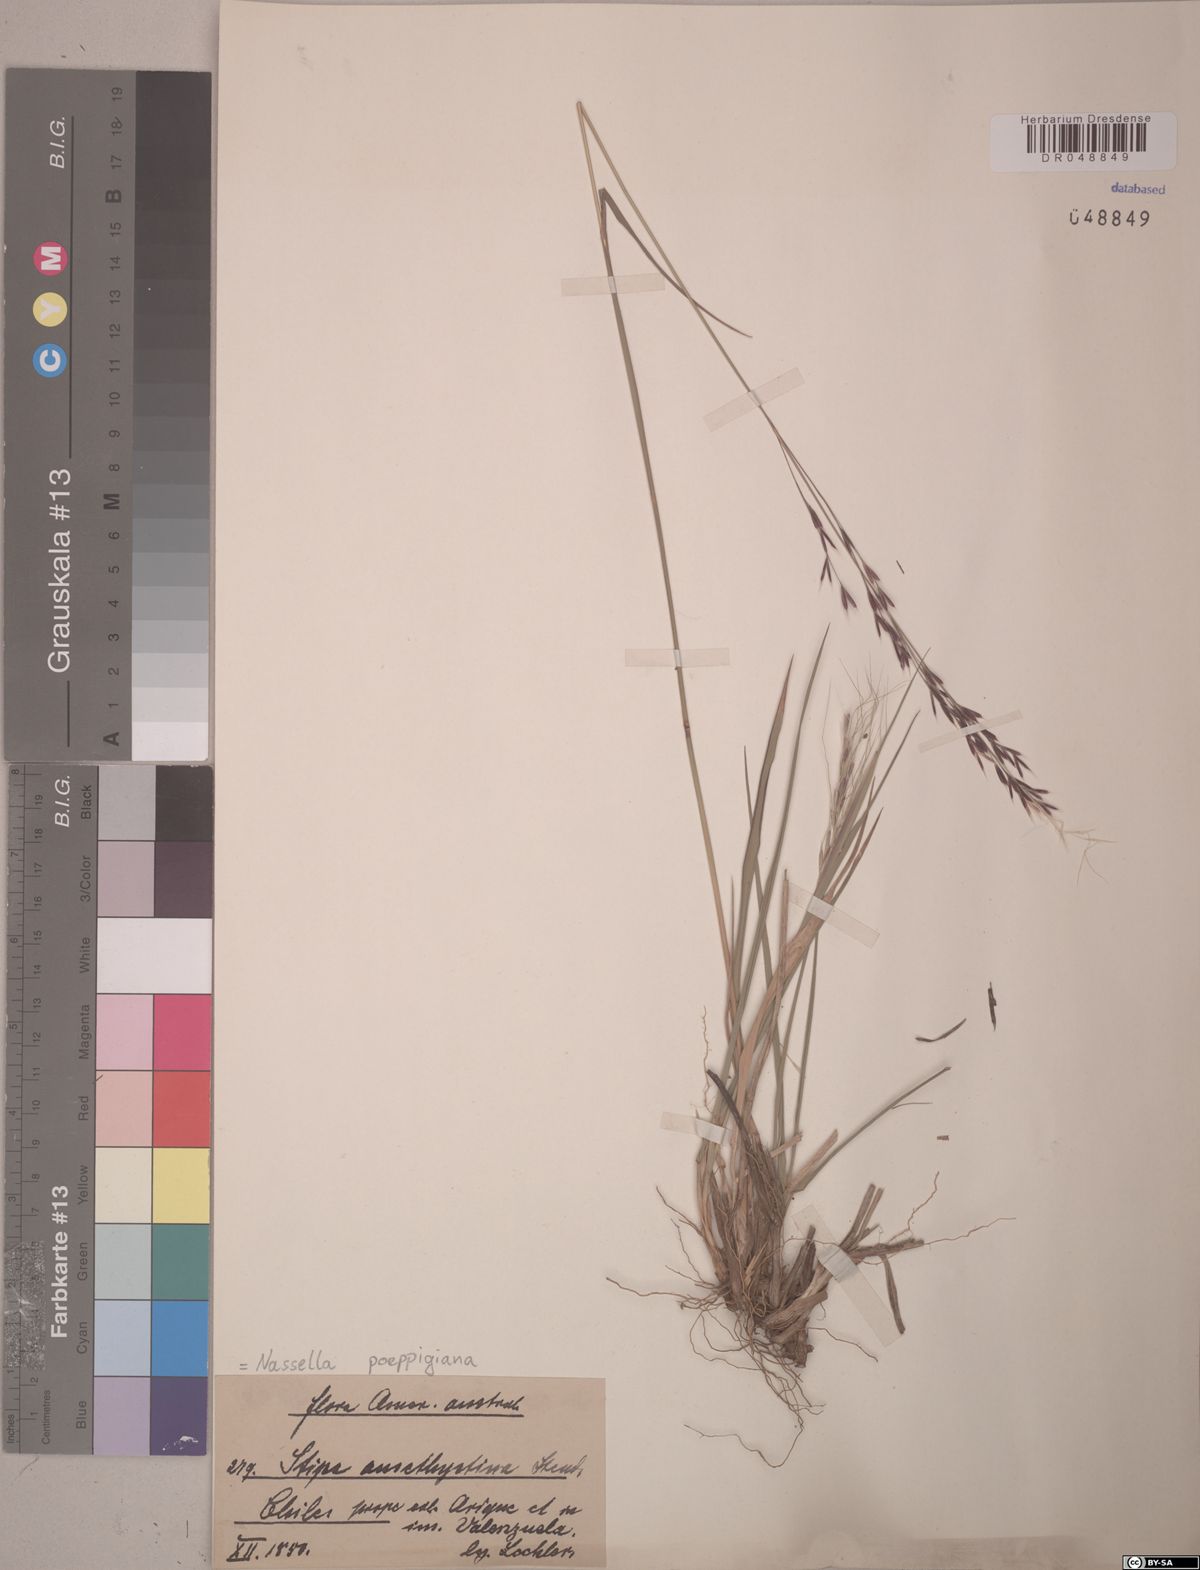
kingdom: Plantae
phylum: Tracheophyta
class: Liliopsida
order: Poales
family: Poaceae
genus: Nassella
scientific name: Nassella poeppigiana
